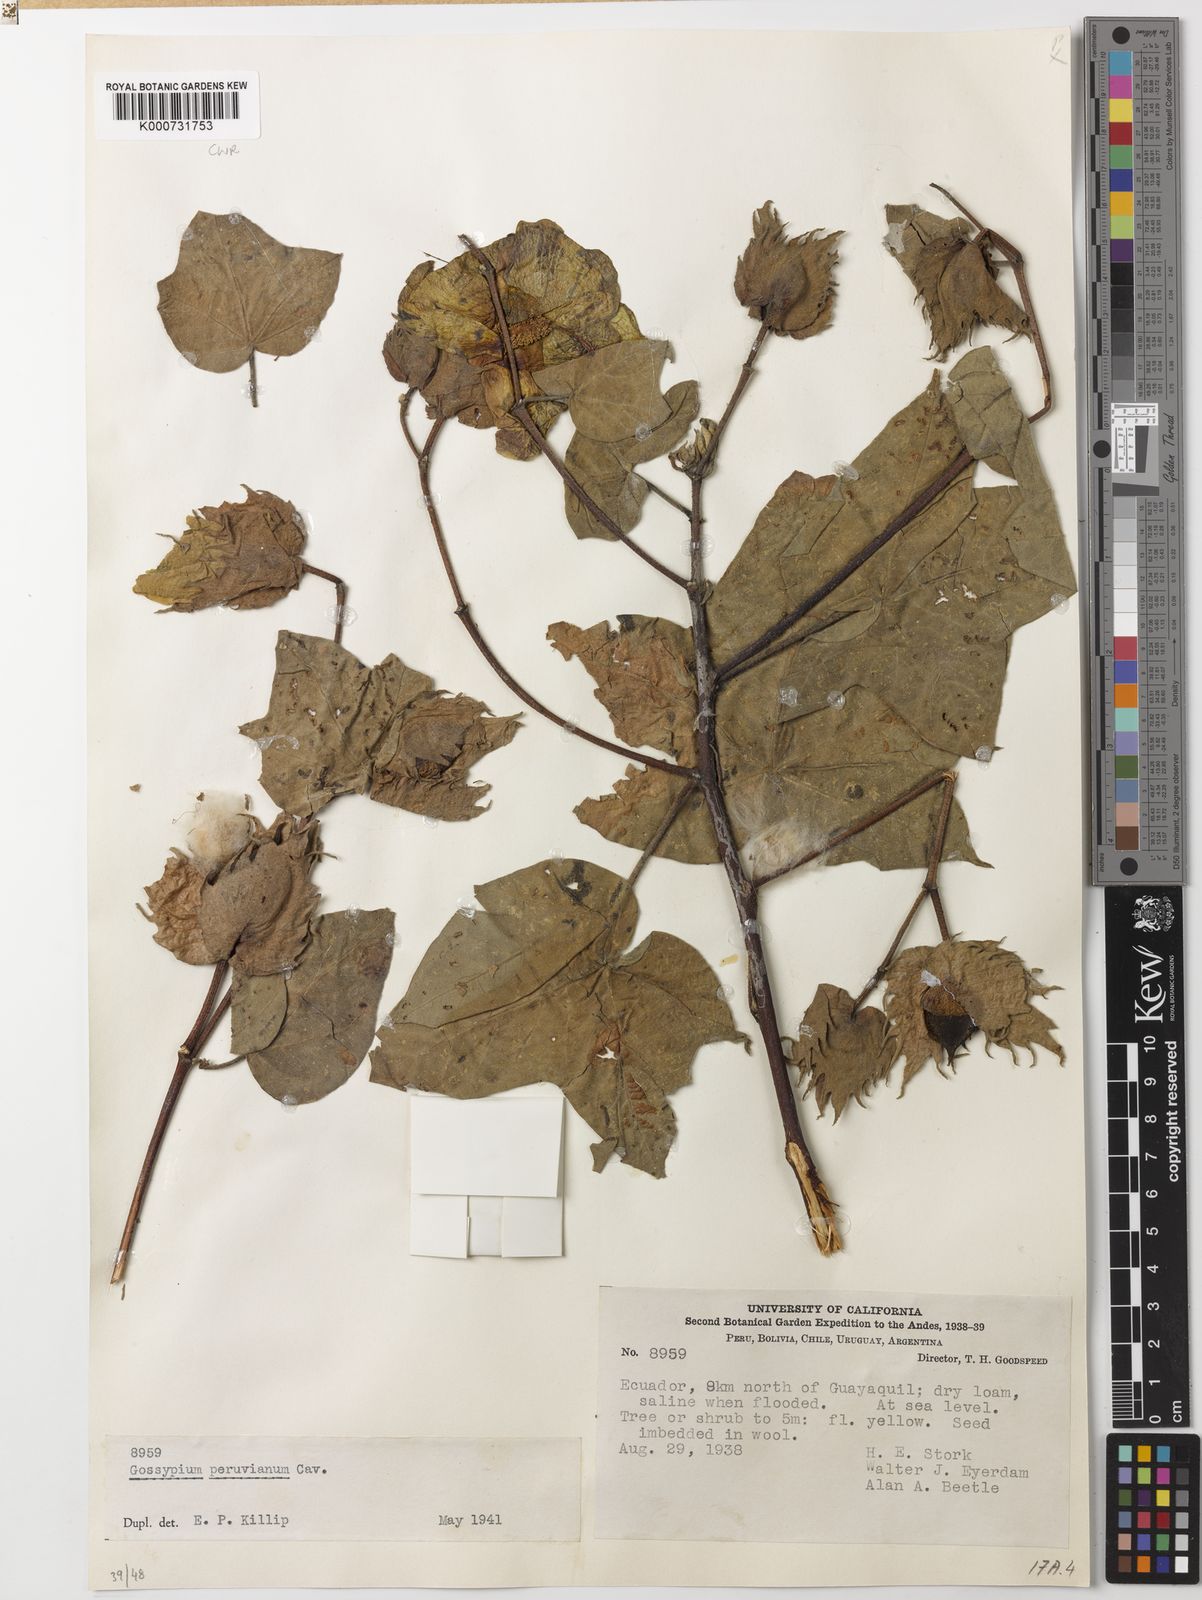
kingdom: Plantae
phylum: Tracheophyta
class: Magnoliopsida
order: Malvales
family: Malvaceae
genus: Gossypium
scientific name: Gossypium barbadense
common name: Creole cotton
